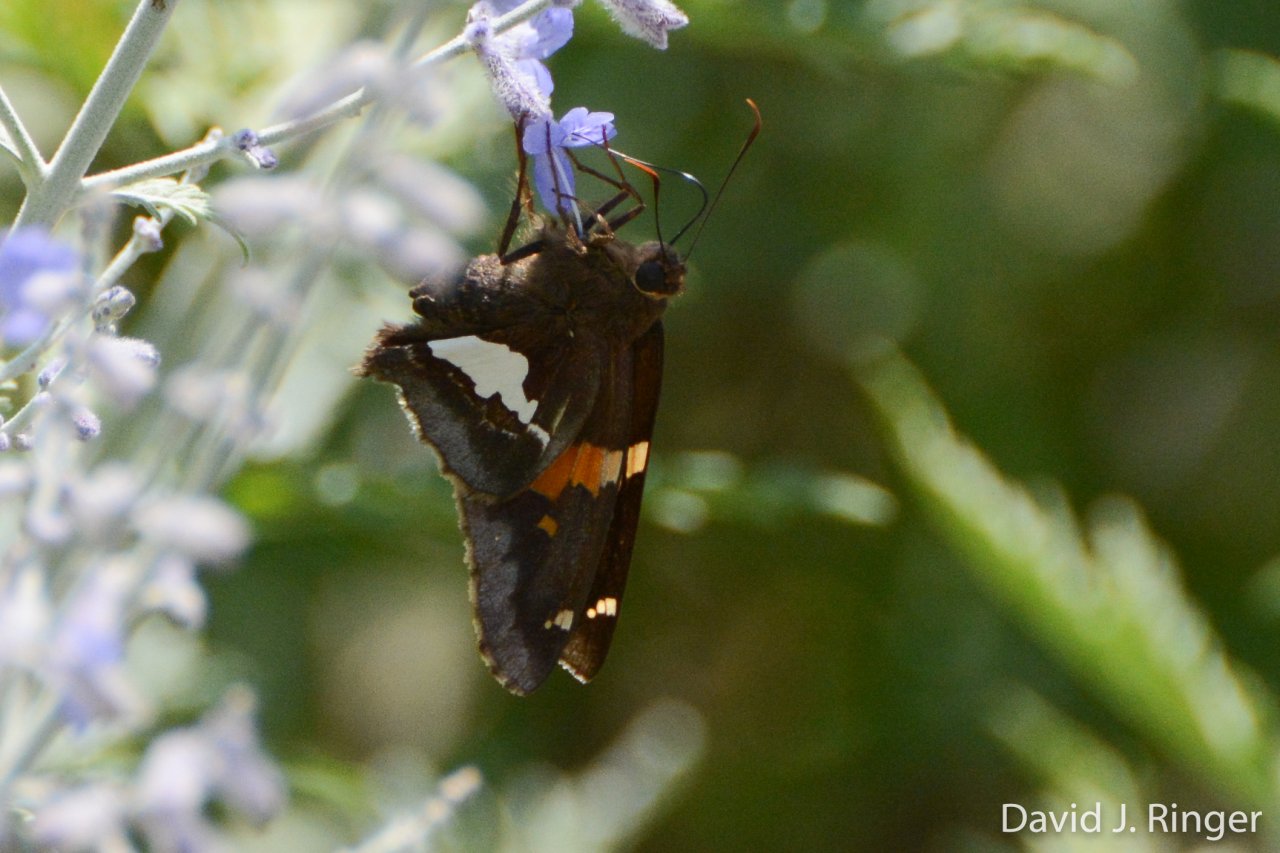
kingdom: Animalia
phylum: Arthropoda
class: Insecta
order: Lepidoptera
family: Hesperiidae
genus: Epargyreus
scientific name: Epargyreus clarus
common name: Silver-spotted Skipper
